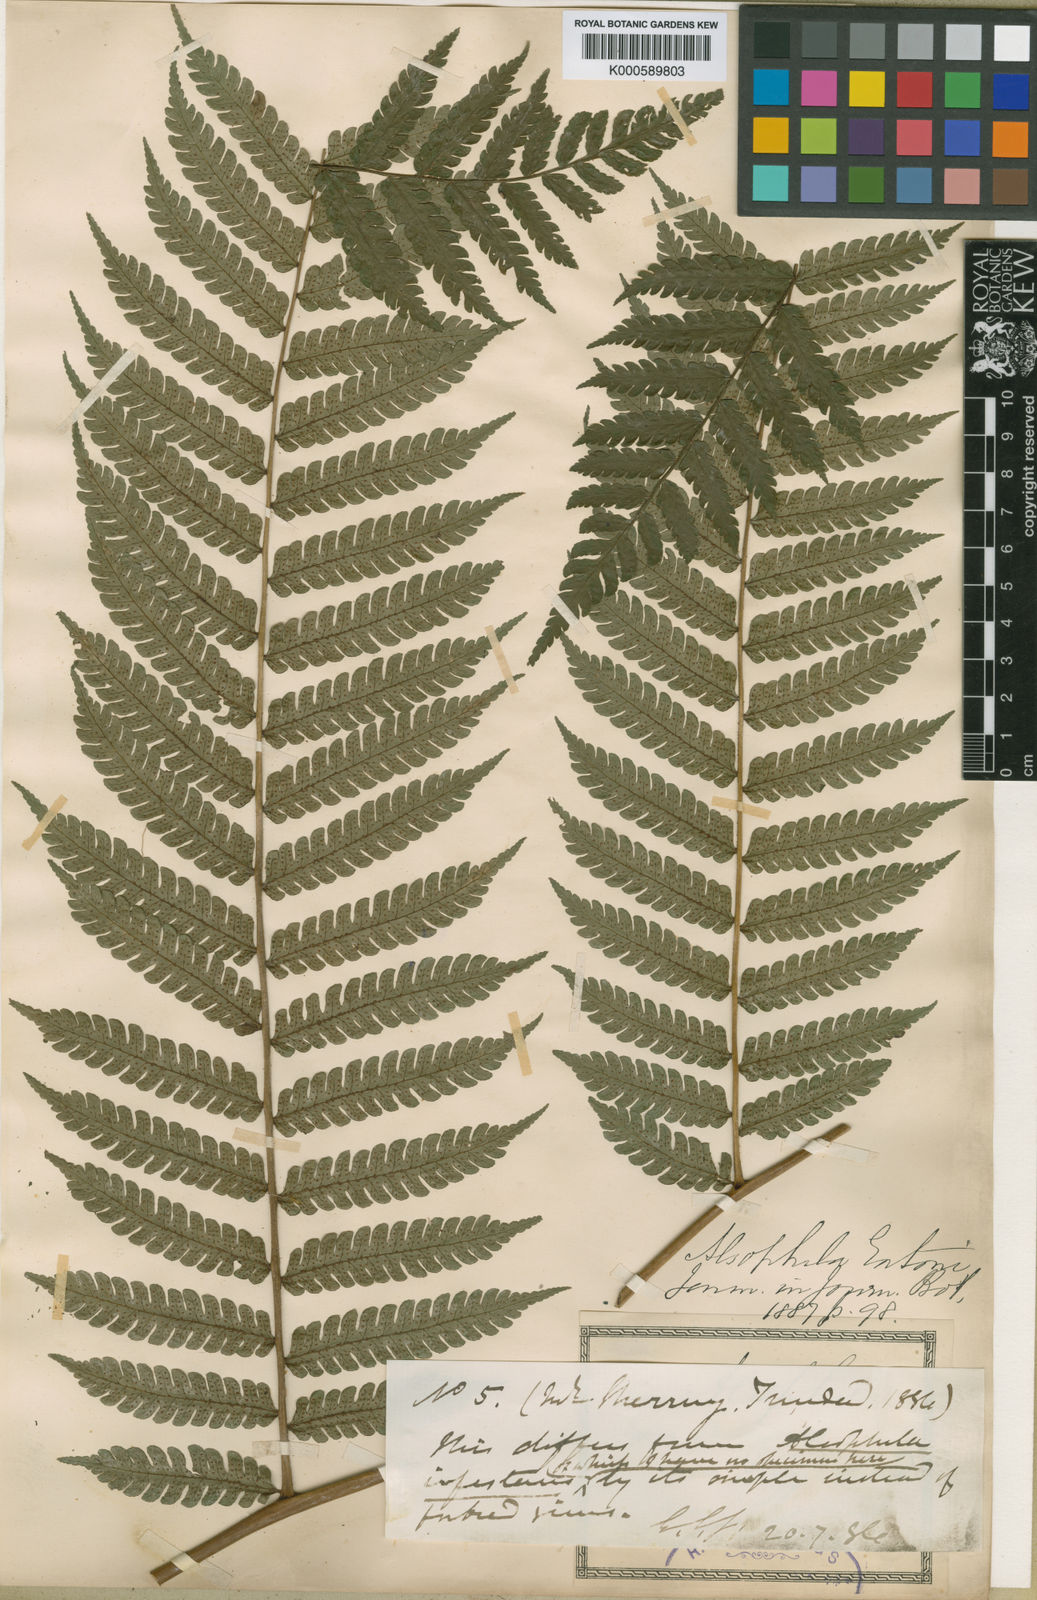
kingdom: Plantae
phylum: Tracheophyta
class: Polypodiopsida
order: Cyatheales
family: Cyatheaceae
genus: Sphaeropteris
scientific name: Sphaeropteris procera
